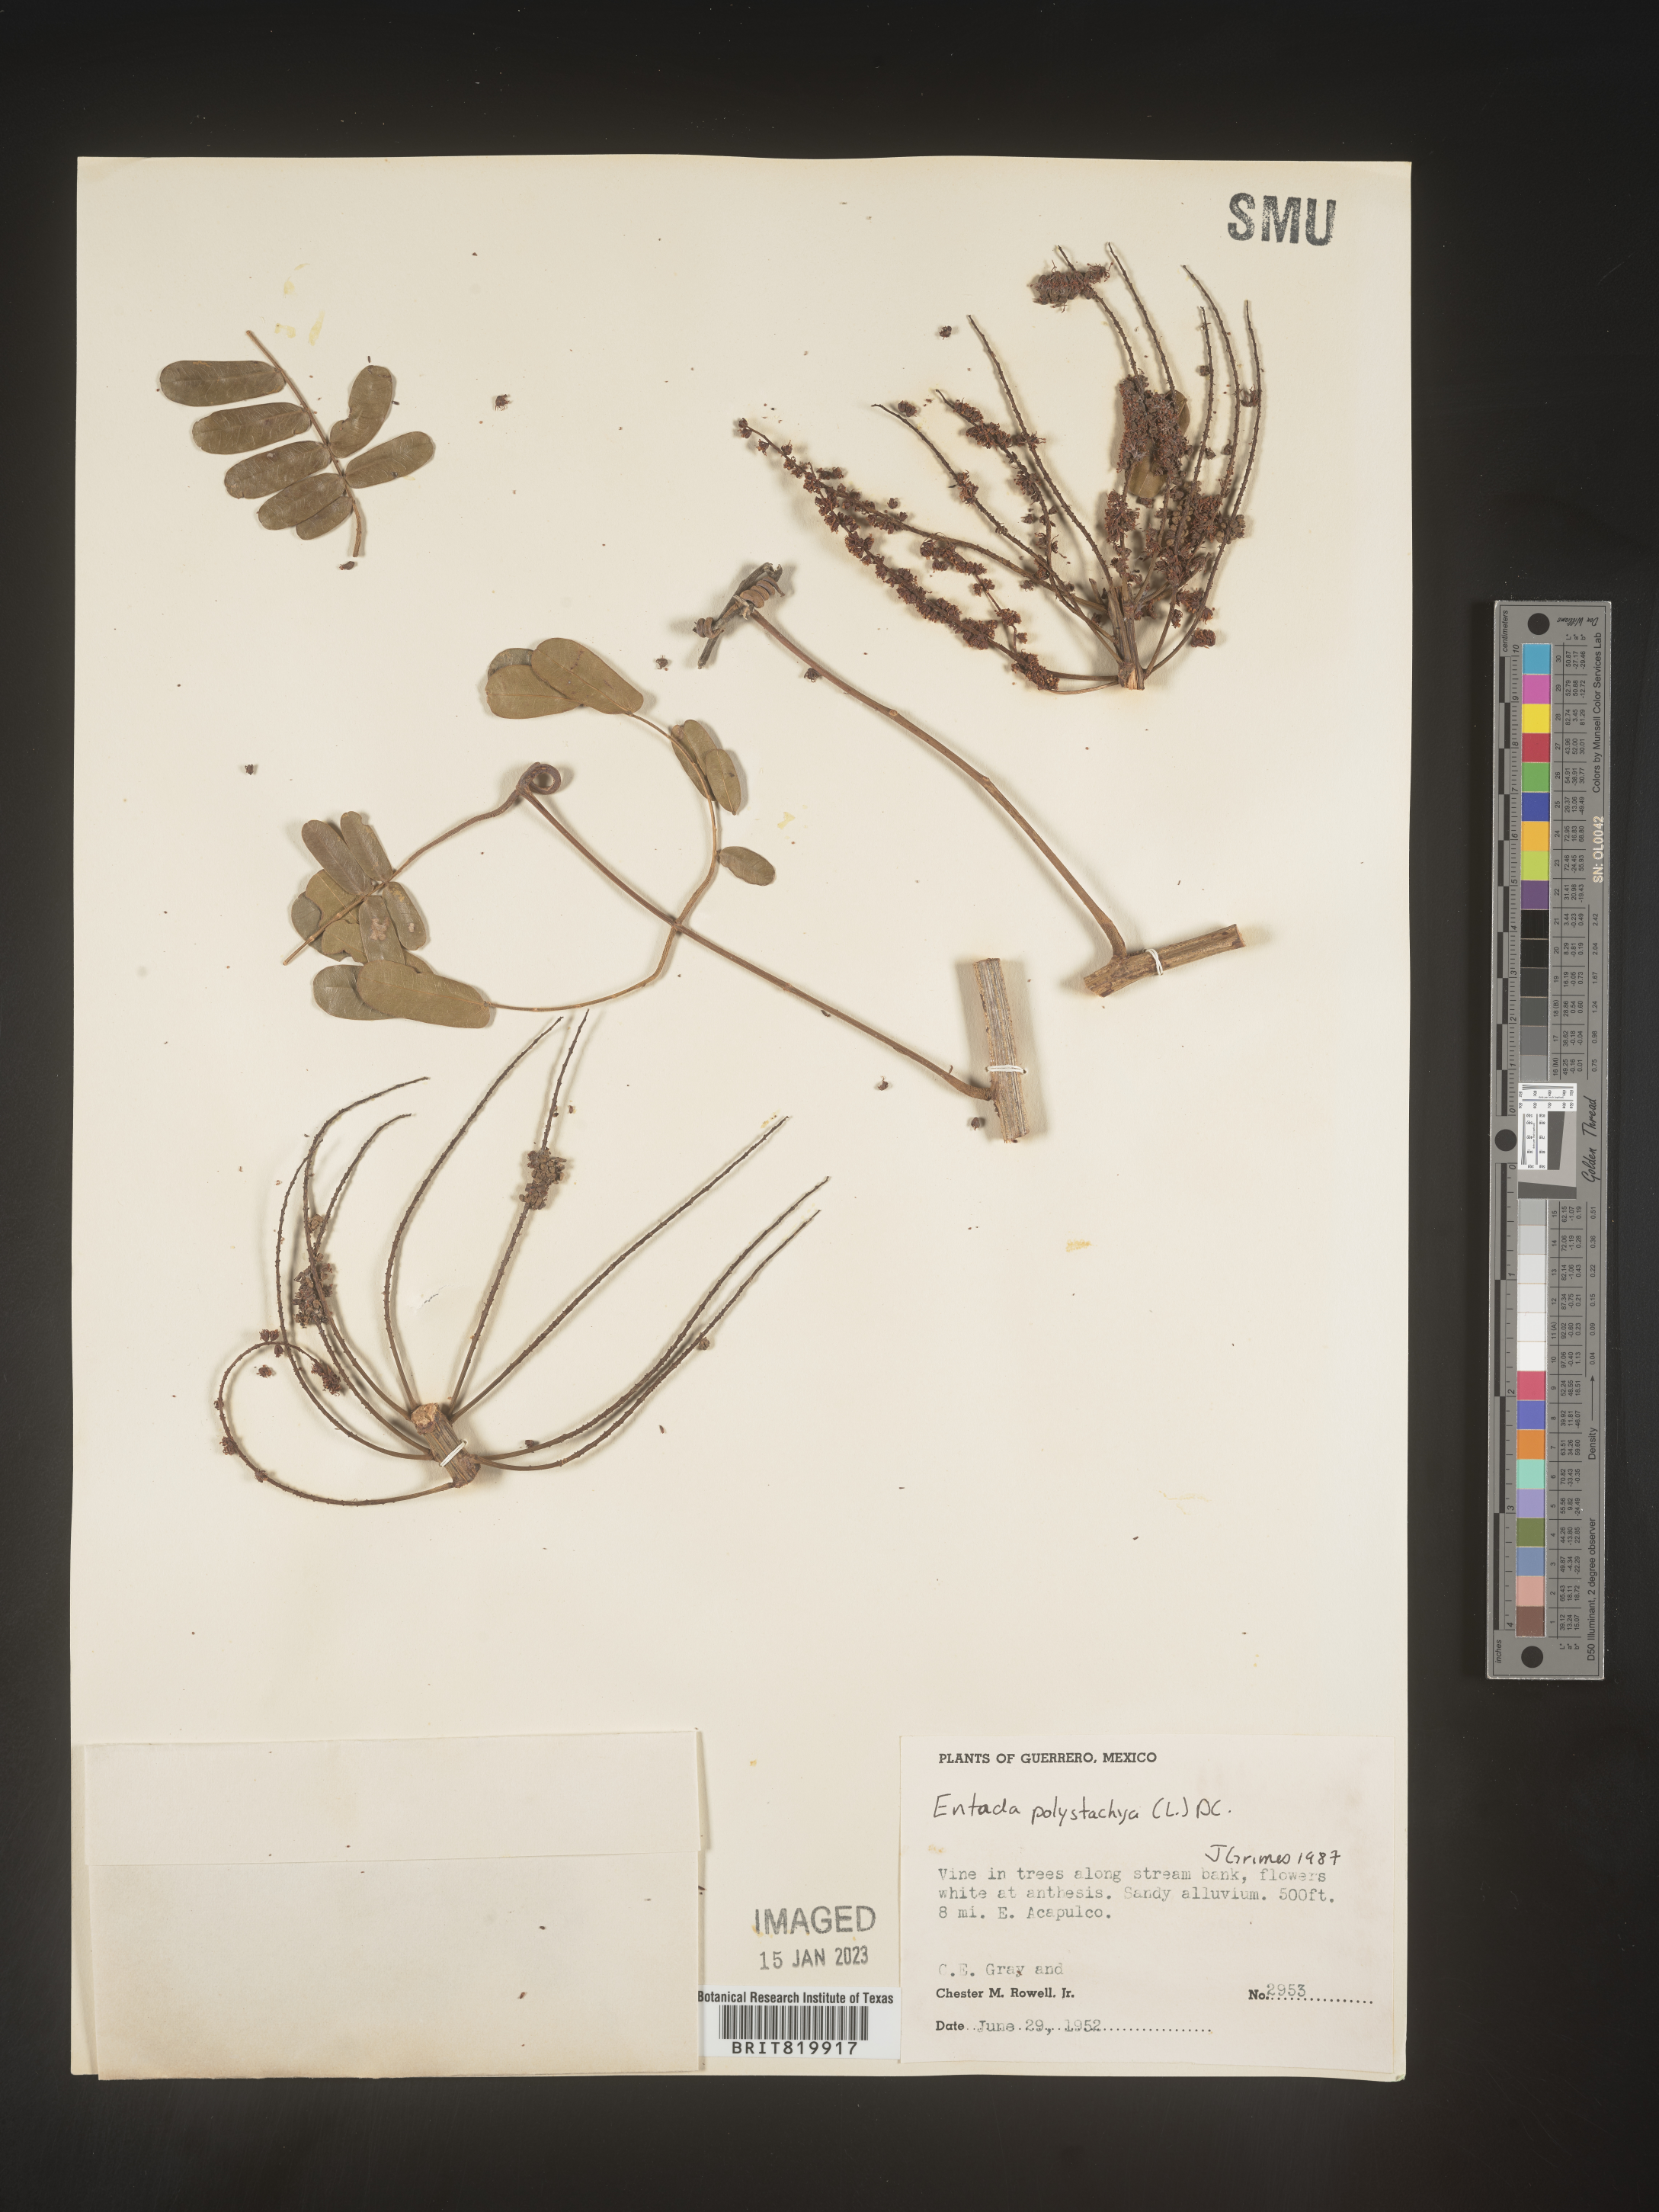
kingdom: Plantae
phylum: Tracheophyta
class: Magnoliopsida
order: Fabales
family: Fabaceae
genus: Entada
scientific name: Entada
